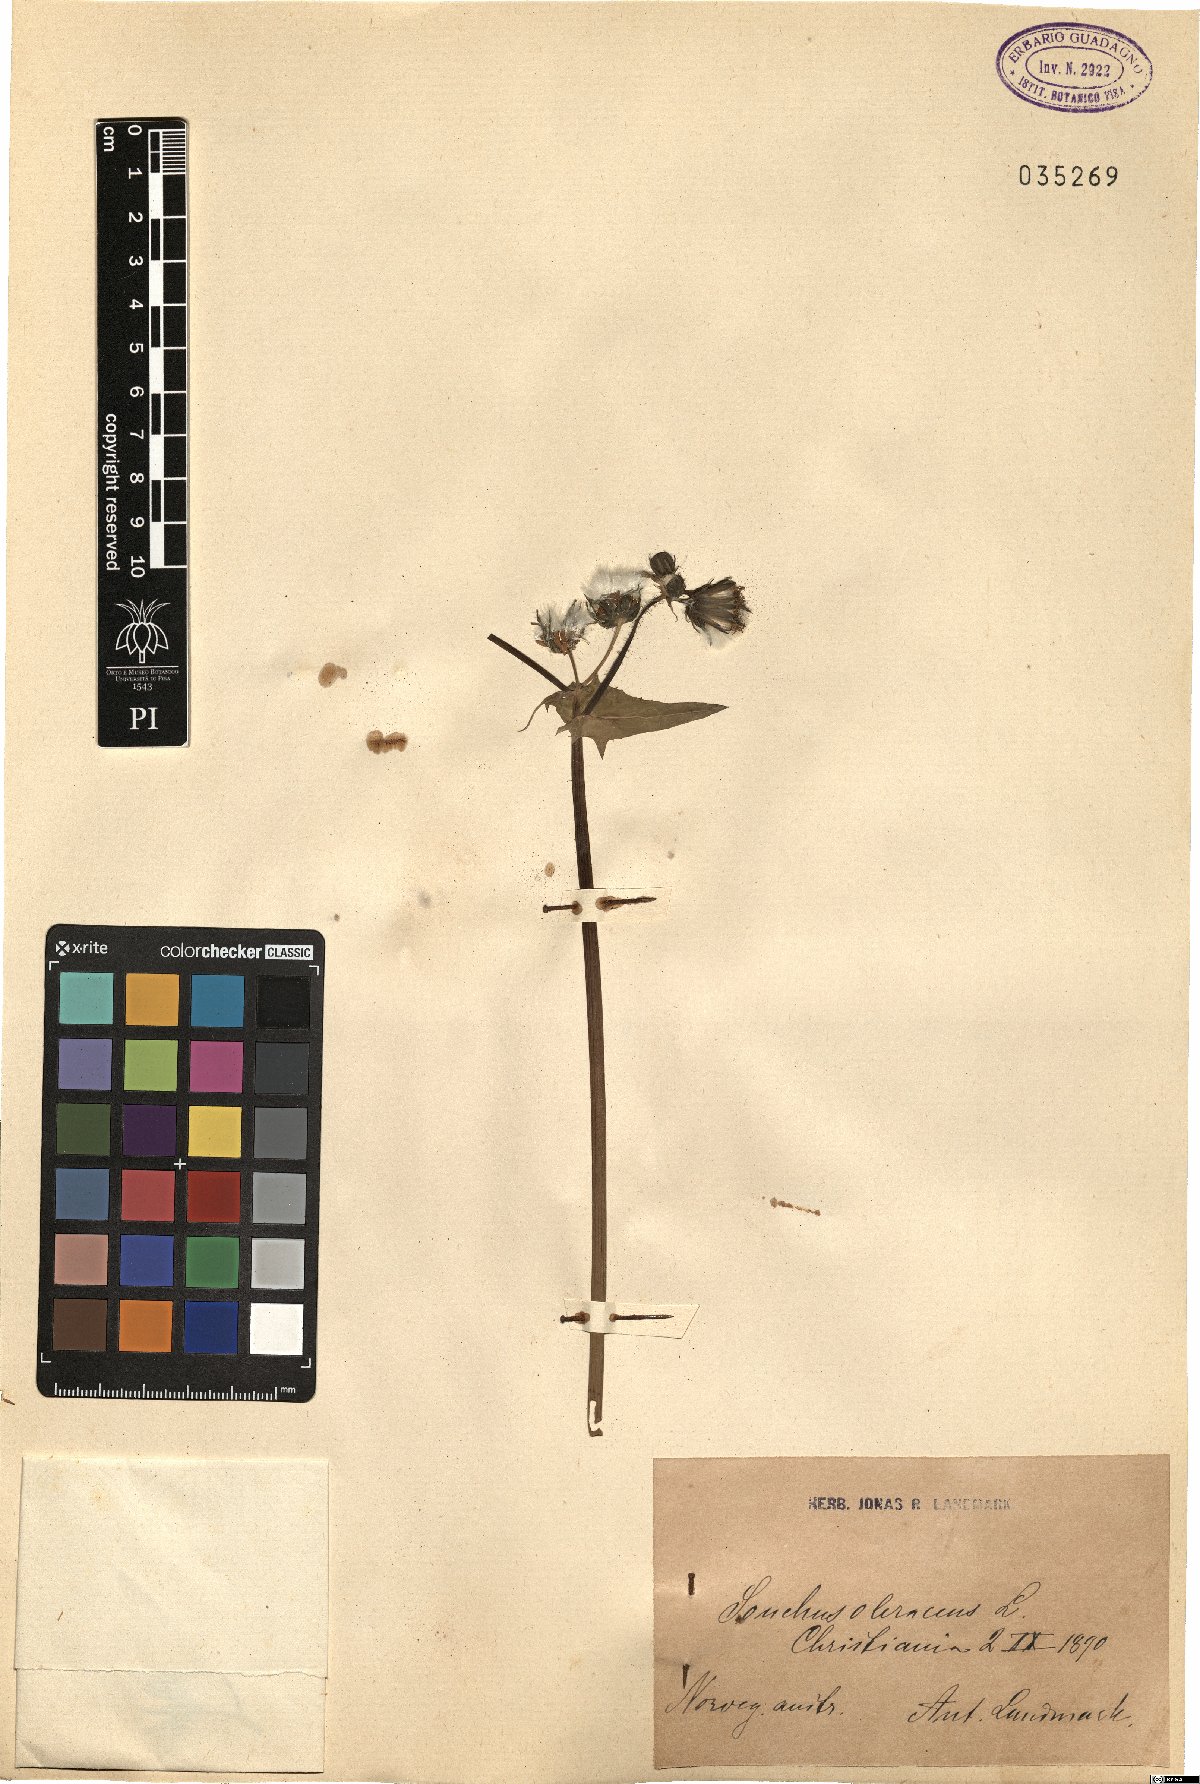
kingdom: Plantae
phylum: Tracheophyta
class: Magnoliopsida
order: Asterales
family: Asteraceae
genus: Sonchus
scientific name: Sonchus oleraceus
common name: Common sowthistle
